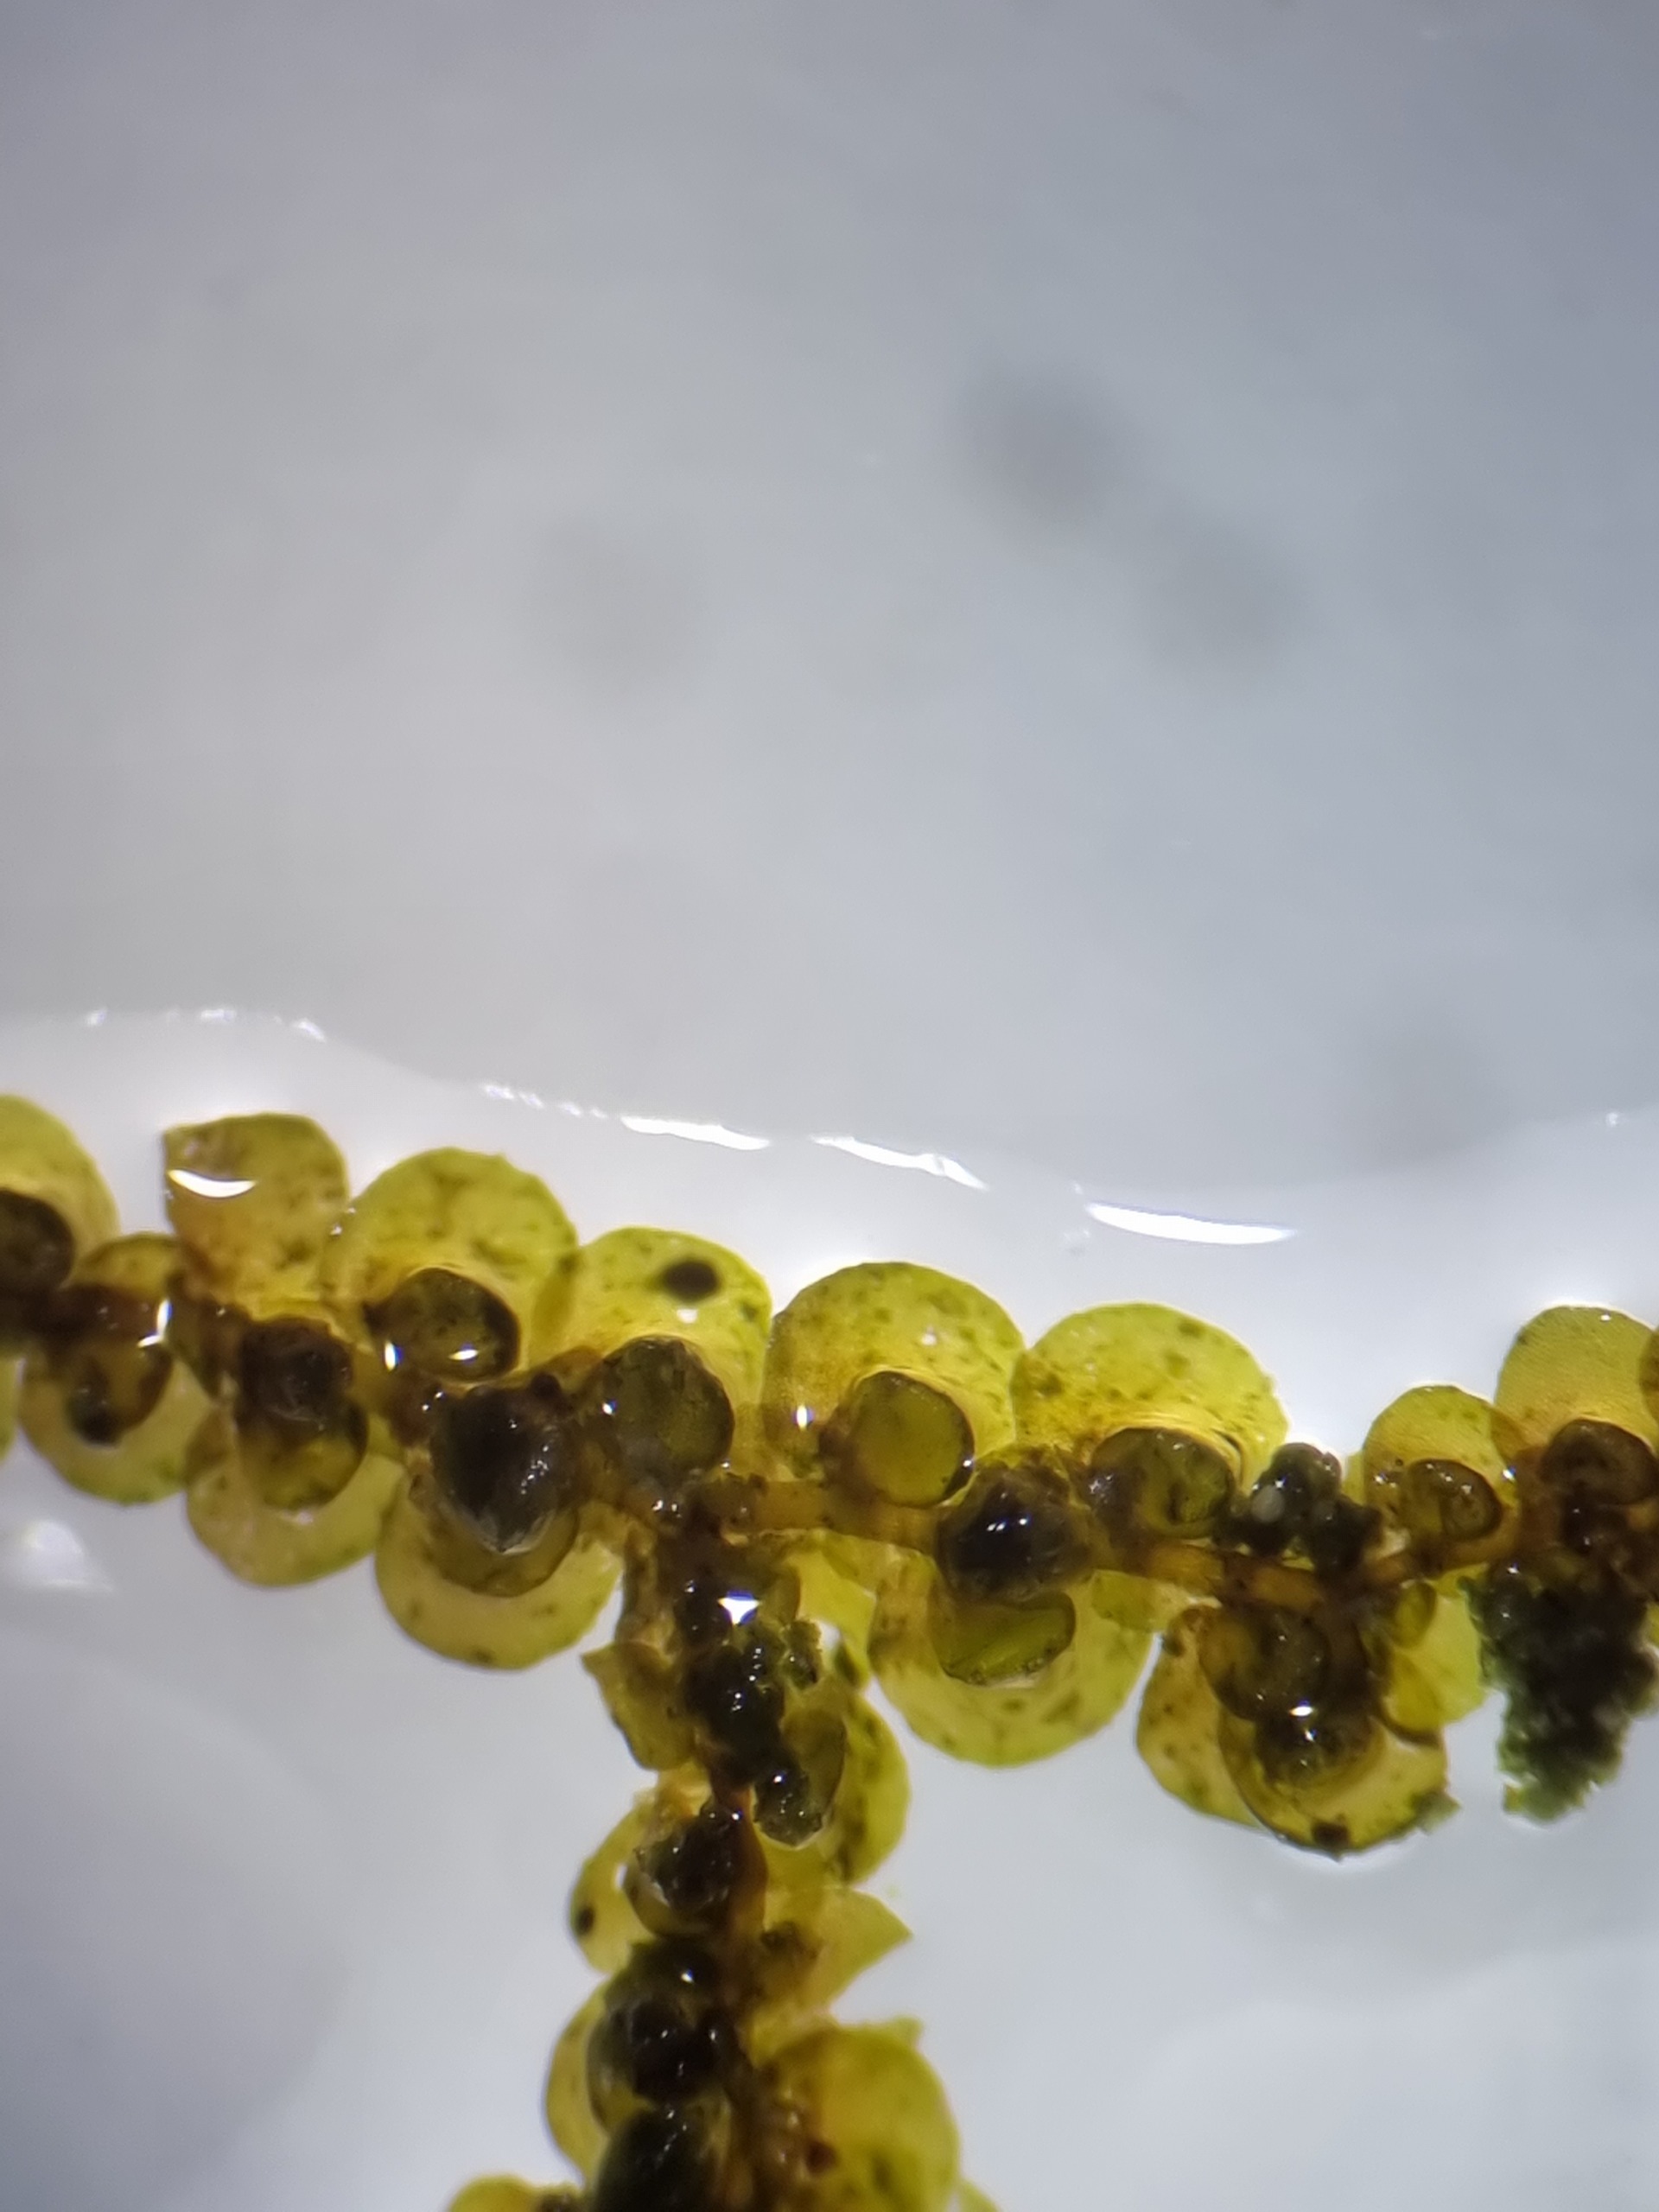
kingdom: Plantae
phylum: Marchantiophyta
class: Jungermanniopsida
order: Porellales
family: Frullaniaceae
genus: Frullania
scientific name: Frullania dilatata
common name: Mat bronzemos
